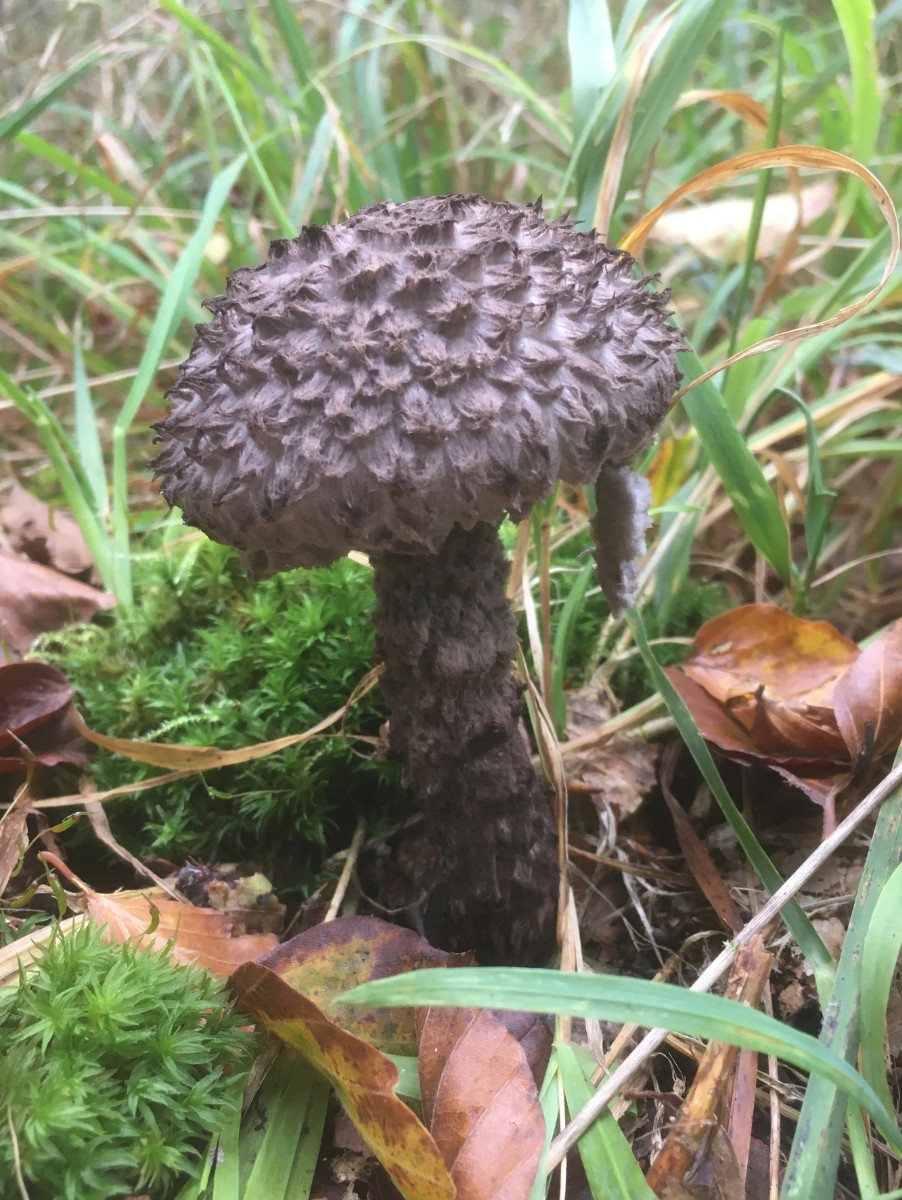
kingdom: Fungi
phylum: Basidiomycota
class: Agaricomycetes
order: Boletales
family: Boletaceae
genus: Strobilomyces
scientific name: Strobilomyces strobilaceus
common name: koglerørhat
